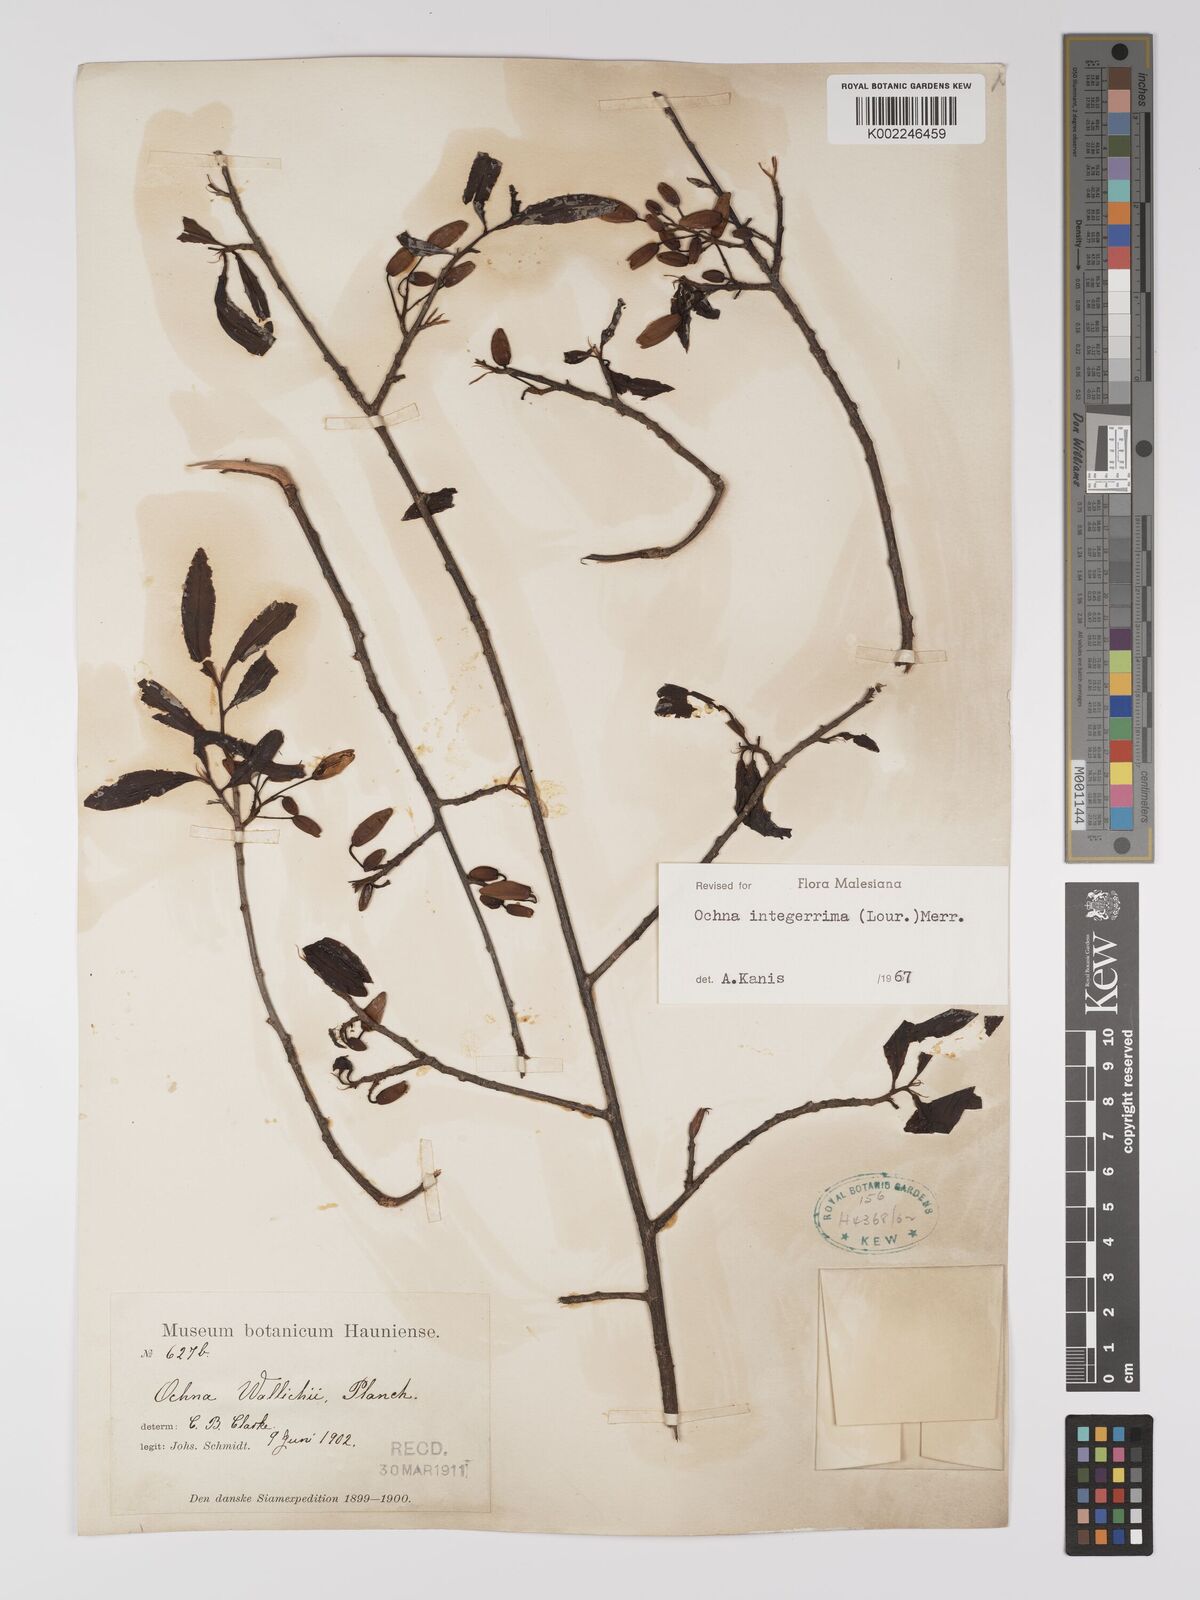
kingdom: Plantae
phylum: Tracheophyta
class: Magnoliopsida
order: Malpighiales
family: Ochnaceae
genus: Ochna
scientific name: Ochna integerrima
